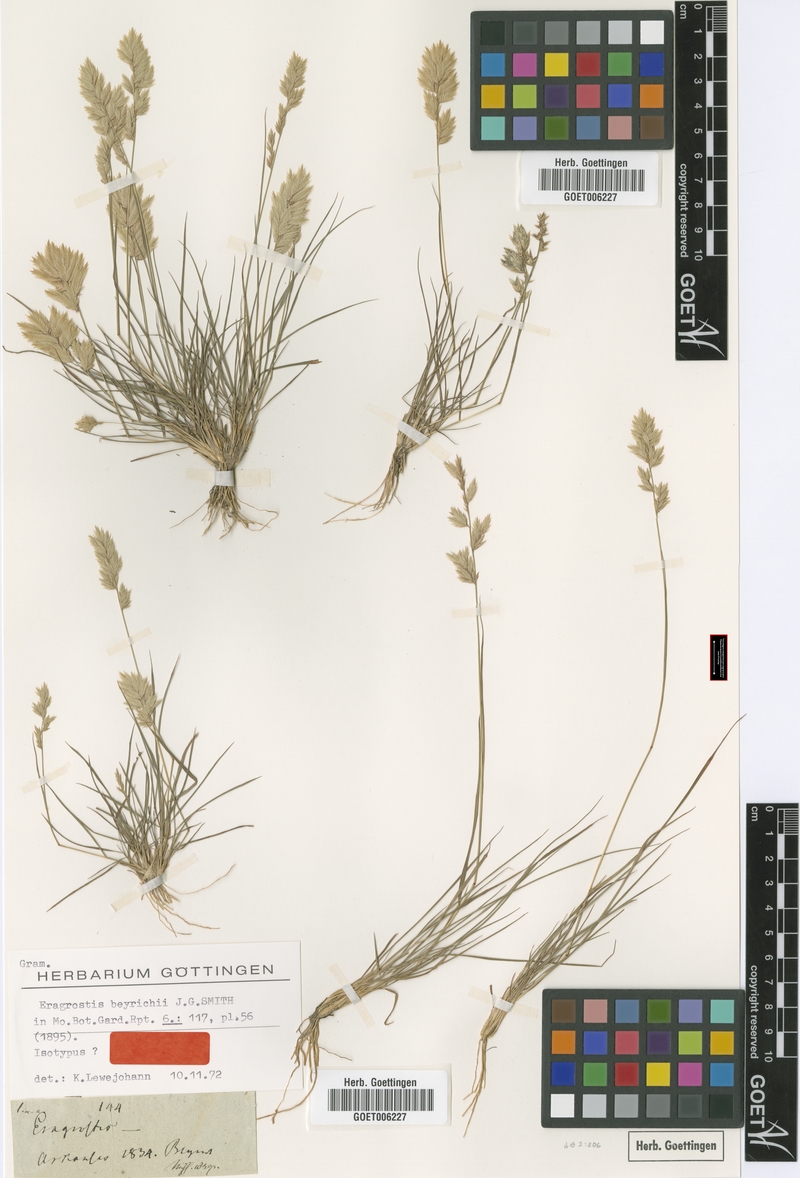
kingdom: Plantae
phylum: Tracheophyta
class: Liliopsida
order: Poales
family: Poaceae
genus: Eragrostis
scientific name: Eragrostis secundiflora
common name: Red love grass
